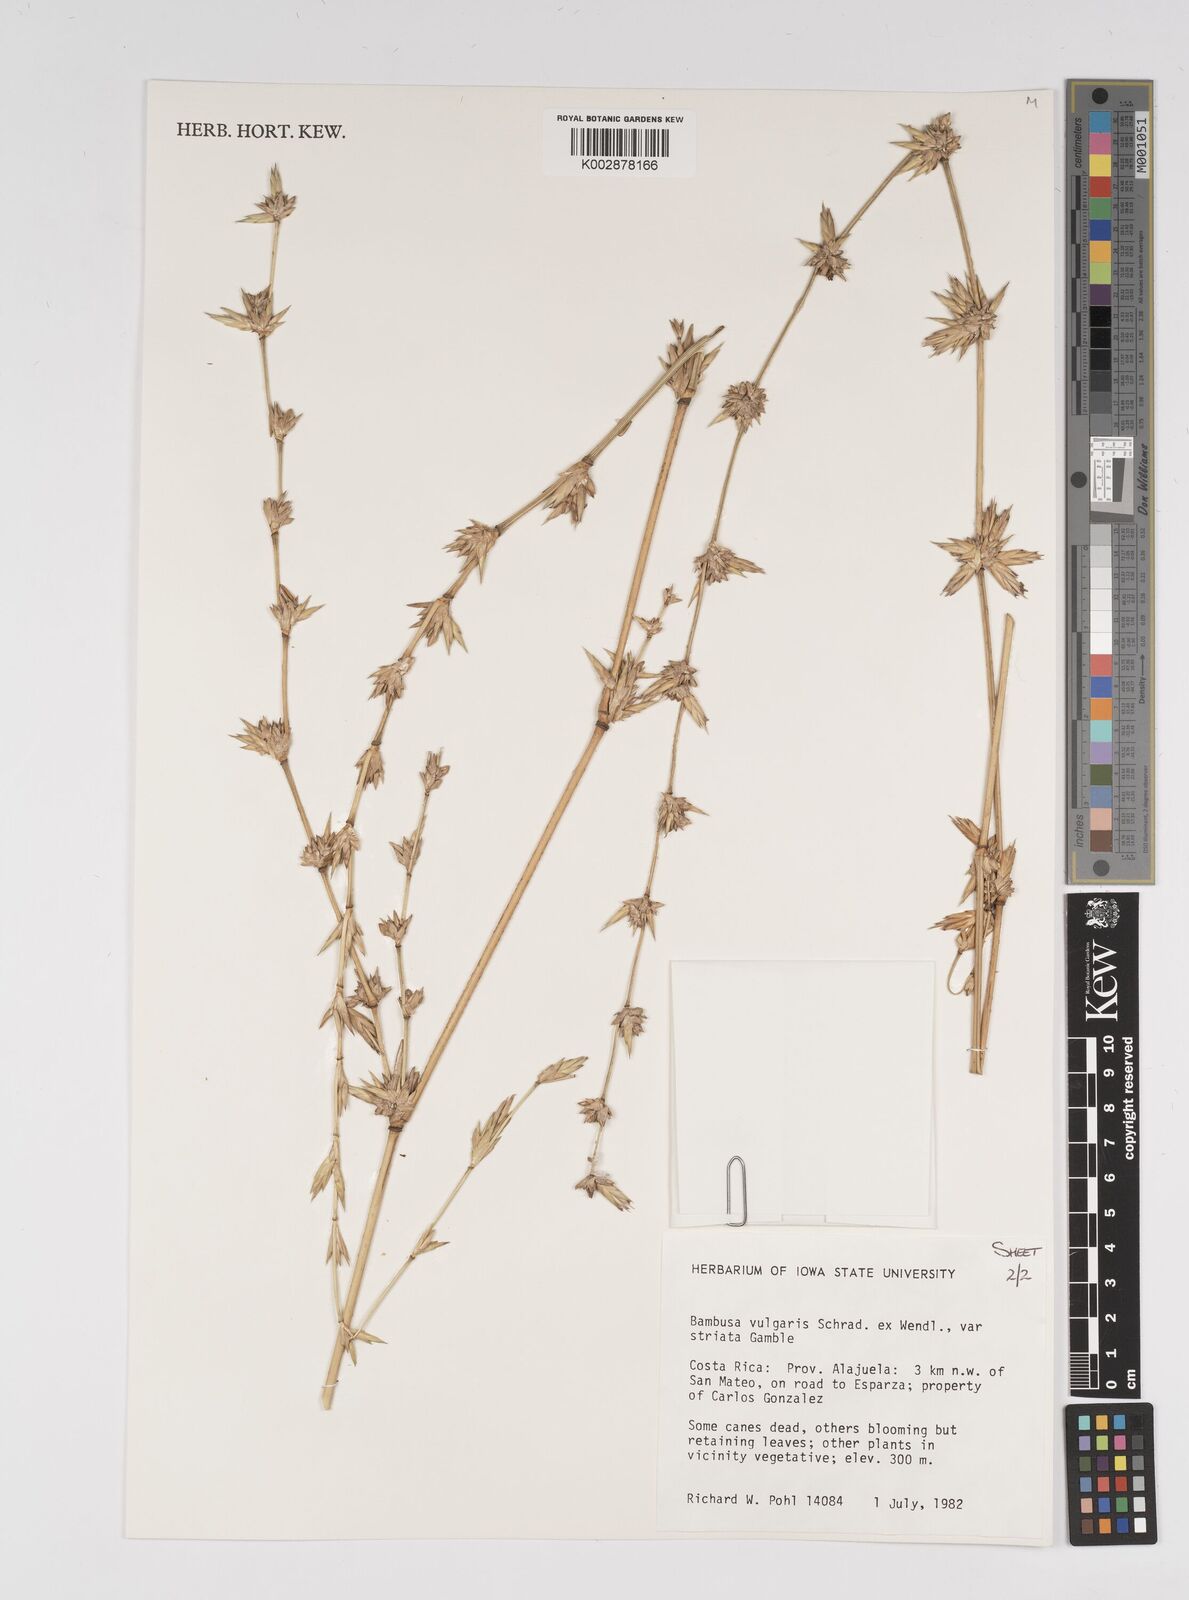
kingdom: Plantae
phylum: Tracheophyta
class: Liliopsida
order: Poales
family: Poaceae
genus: Bambusa
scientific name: Bambusa
